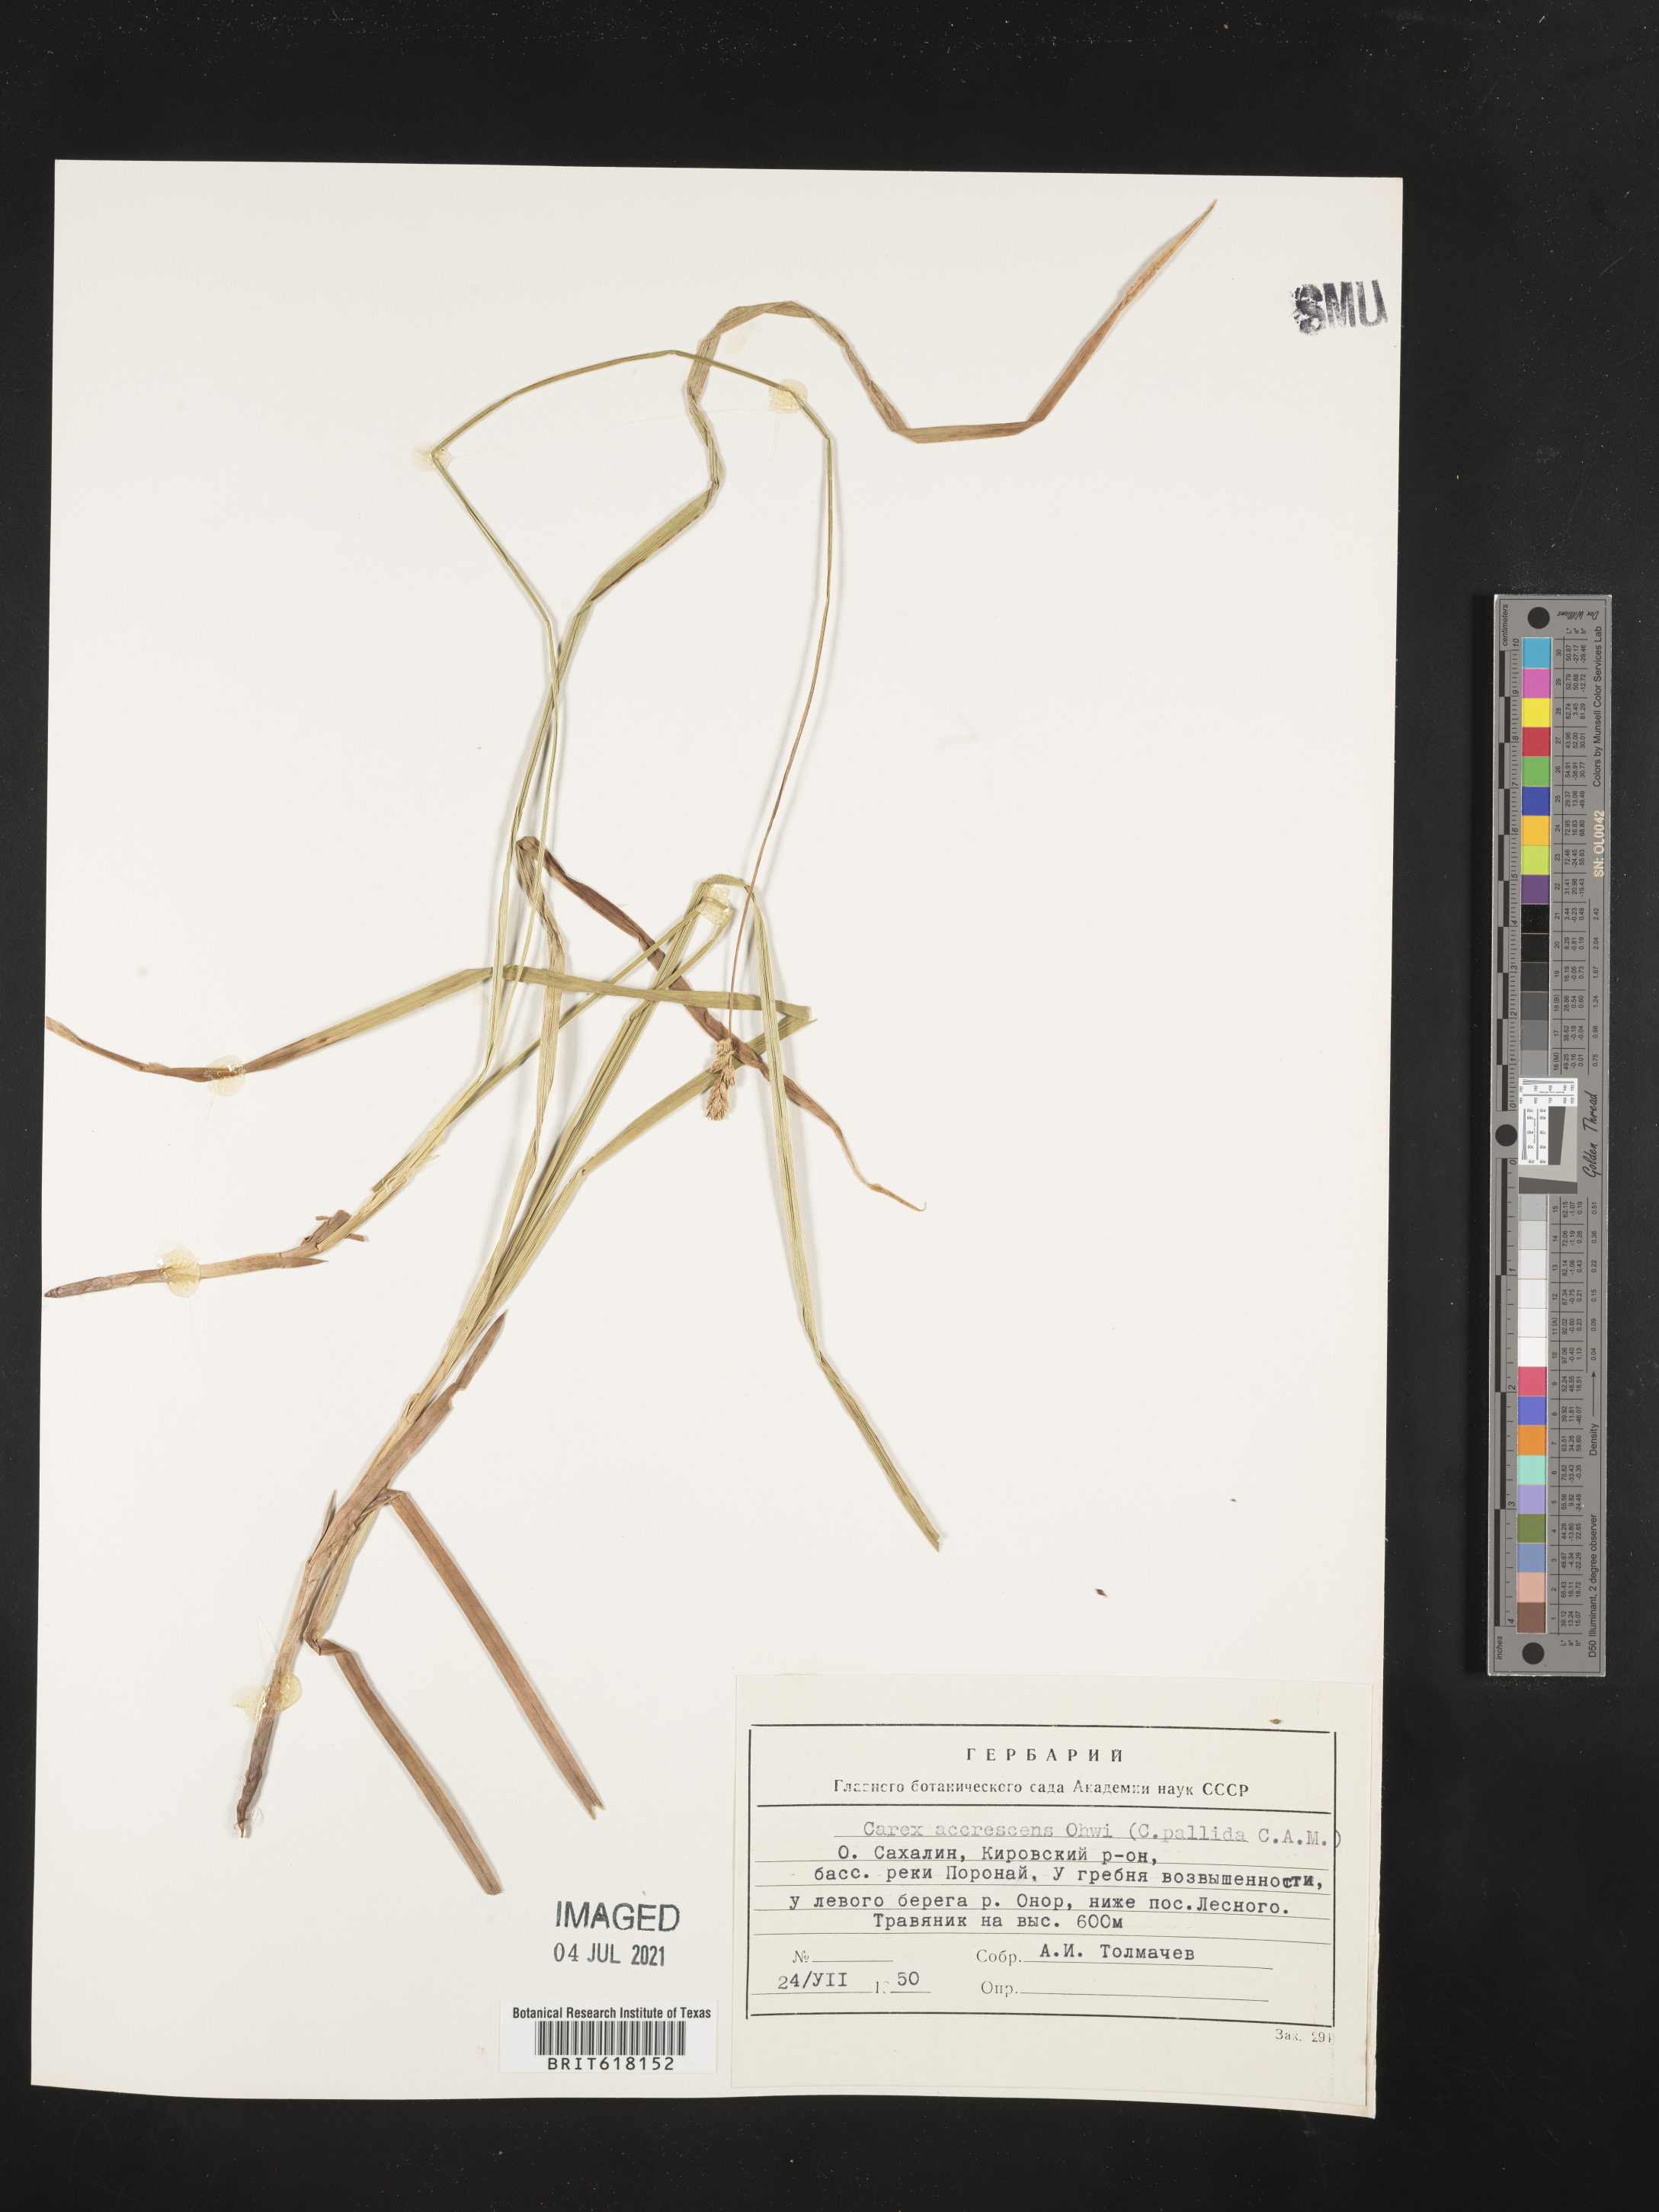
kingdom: Plantae
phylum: Tracheophyta
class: Liliopsida
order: Poales
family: Cyperaceae
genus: Carex
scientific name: Carex accrescens
